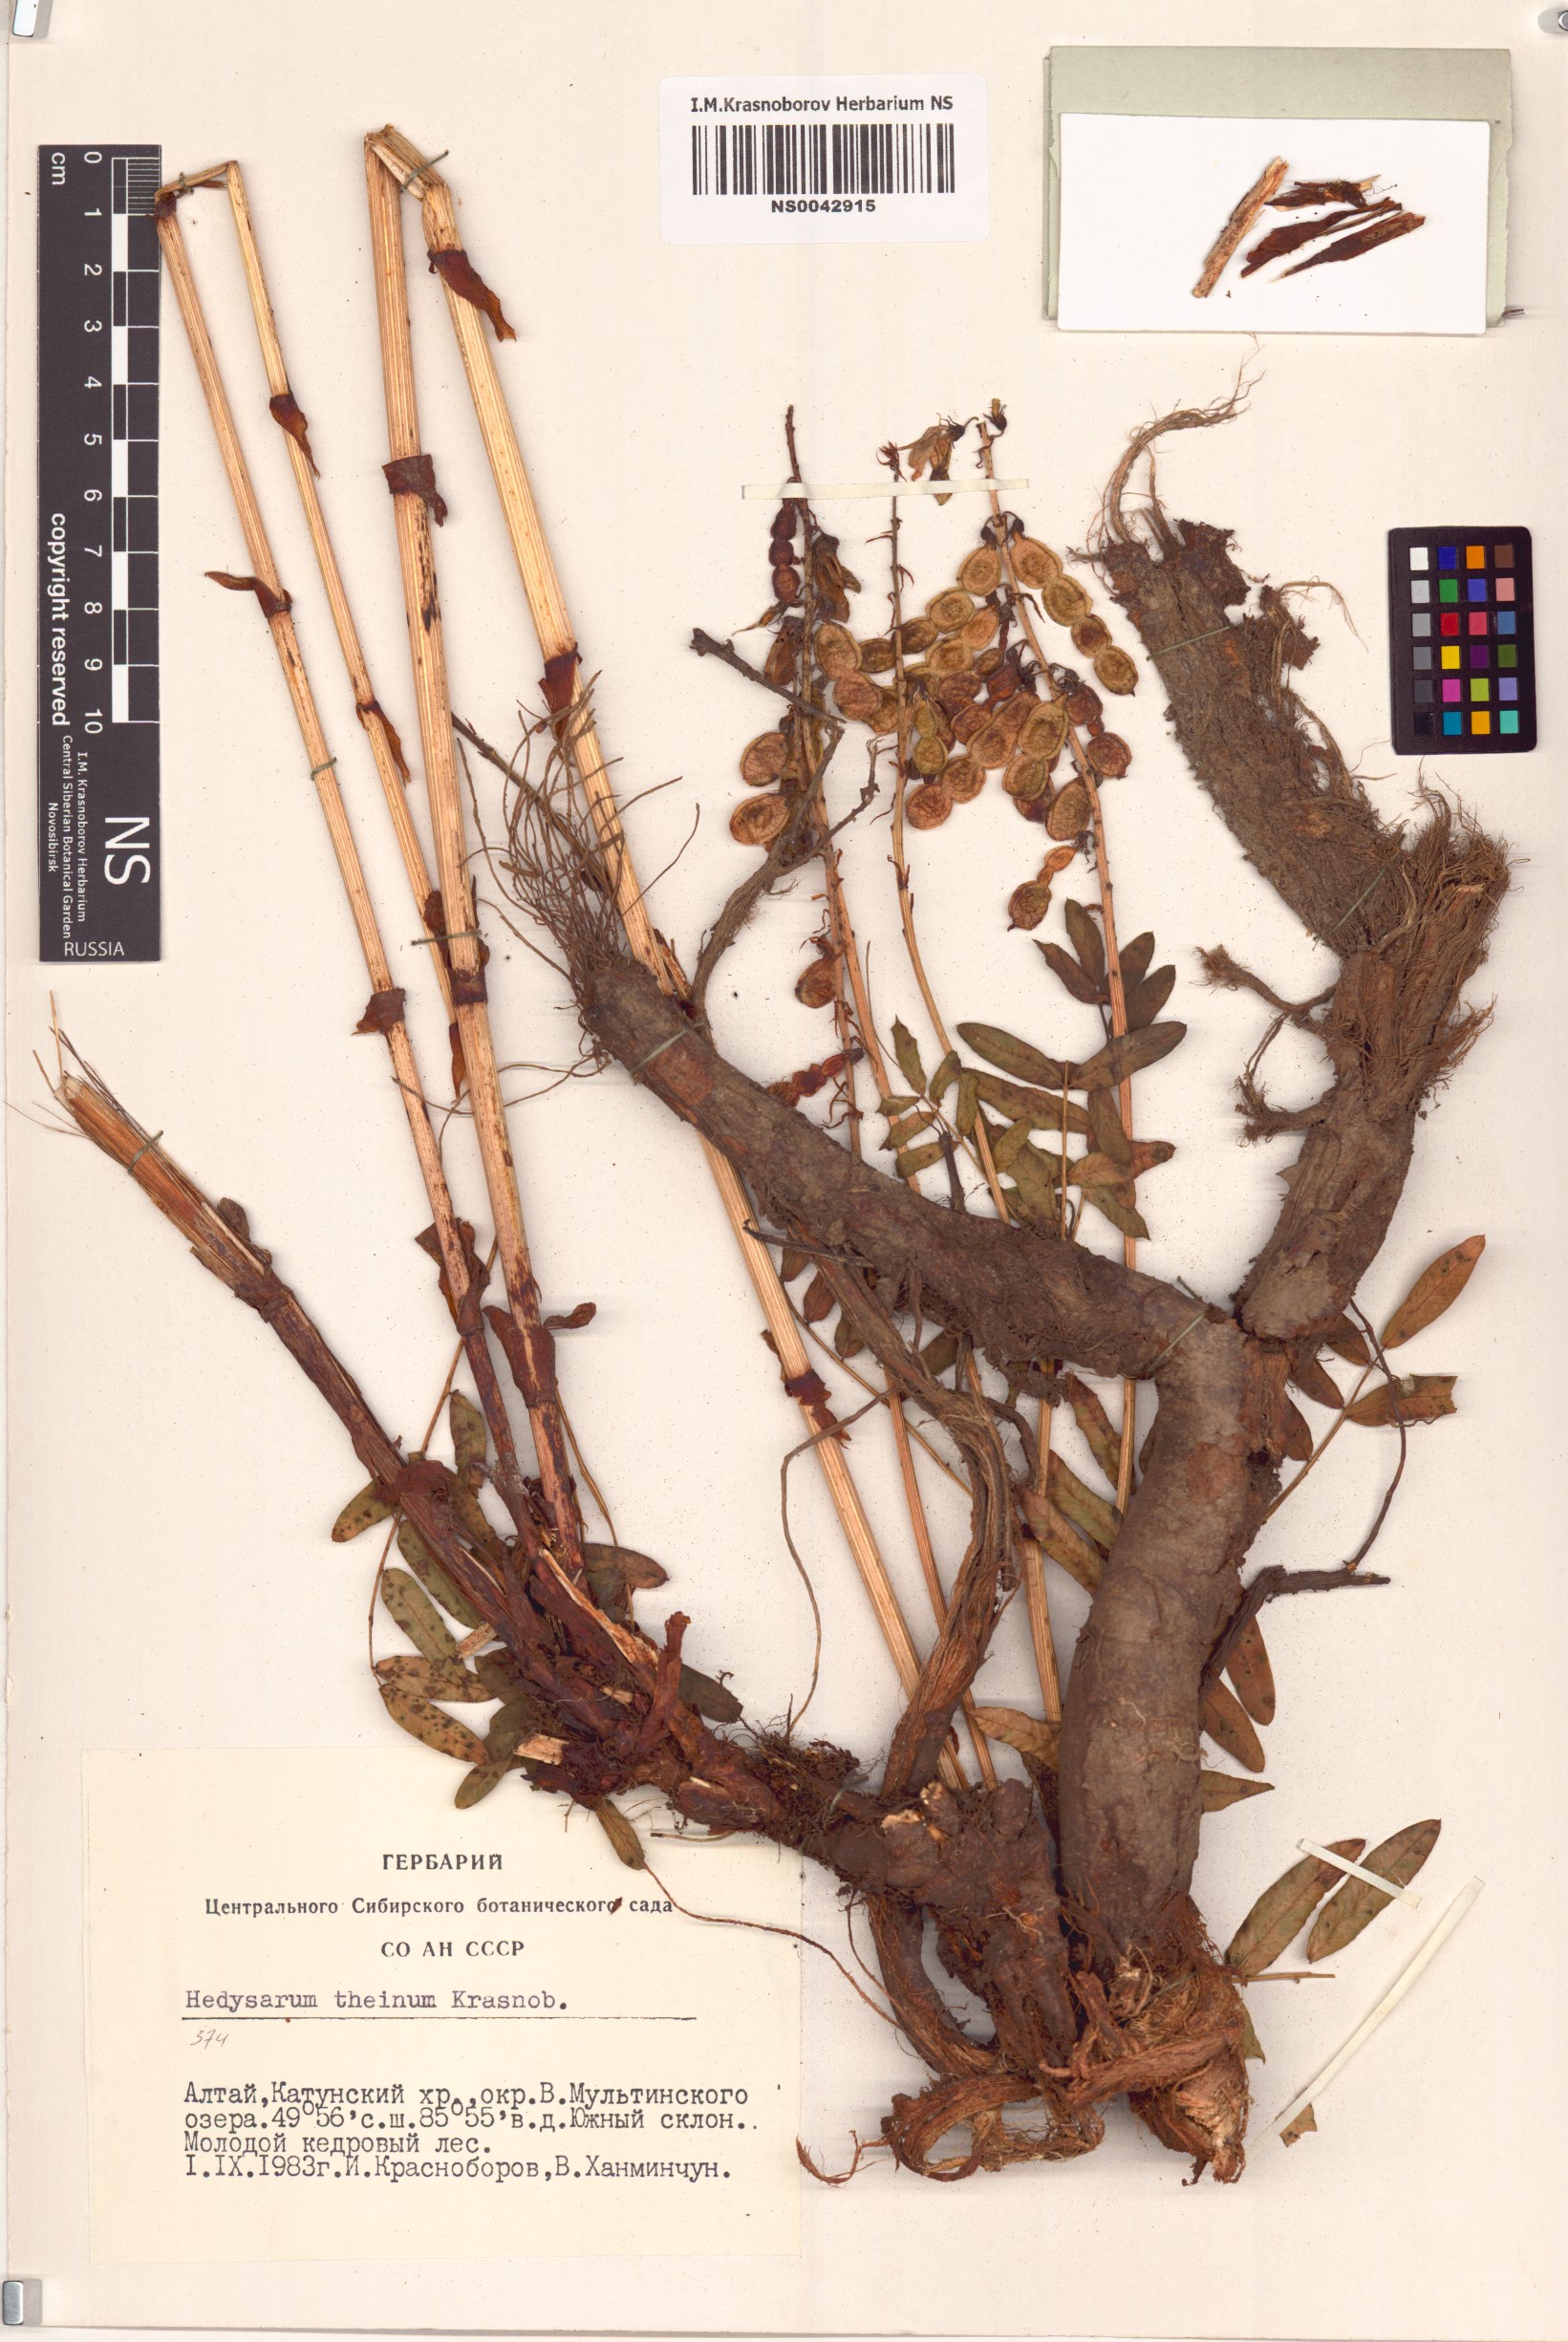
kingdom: Plantae
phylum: Tracheophyta
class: Magnoliopsida
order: Fabales
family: Fabaceae
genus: Hedysarum
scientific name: Hedysarum theinum
